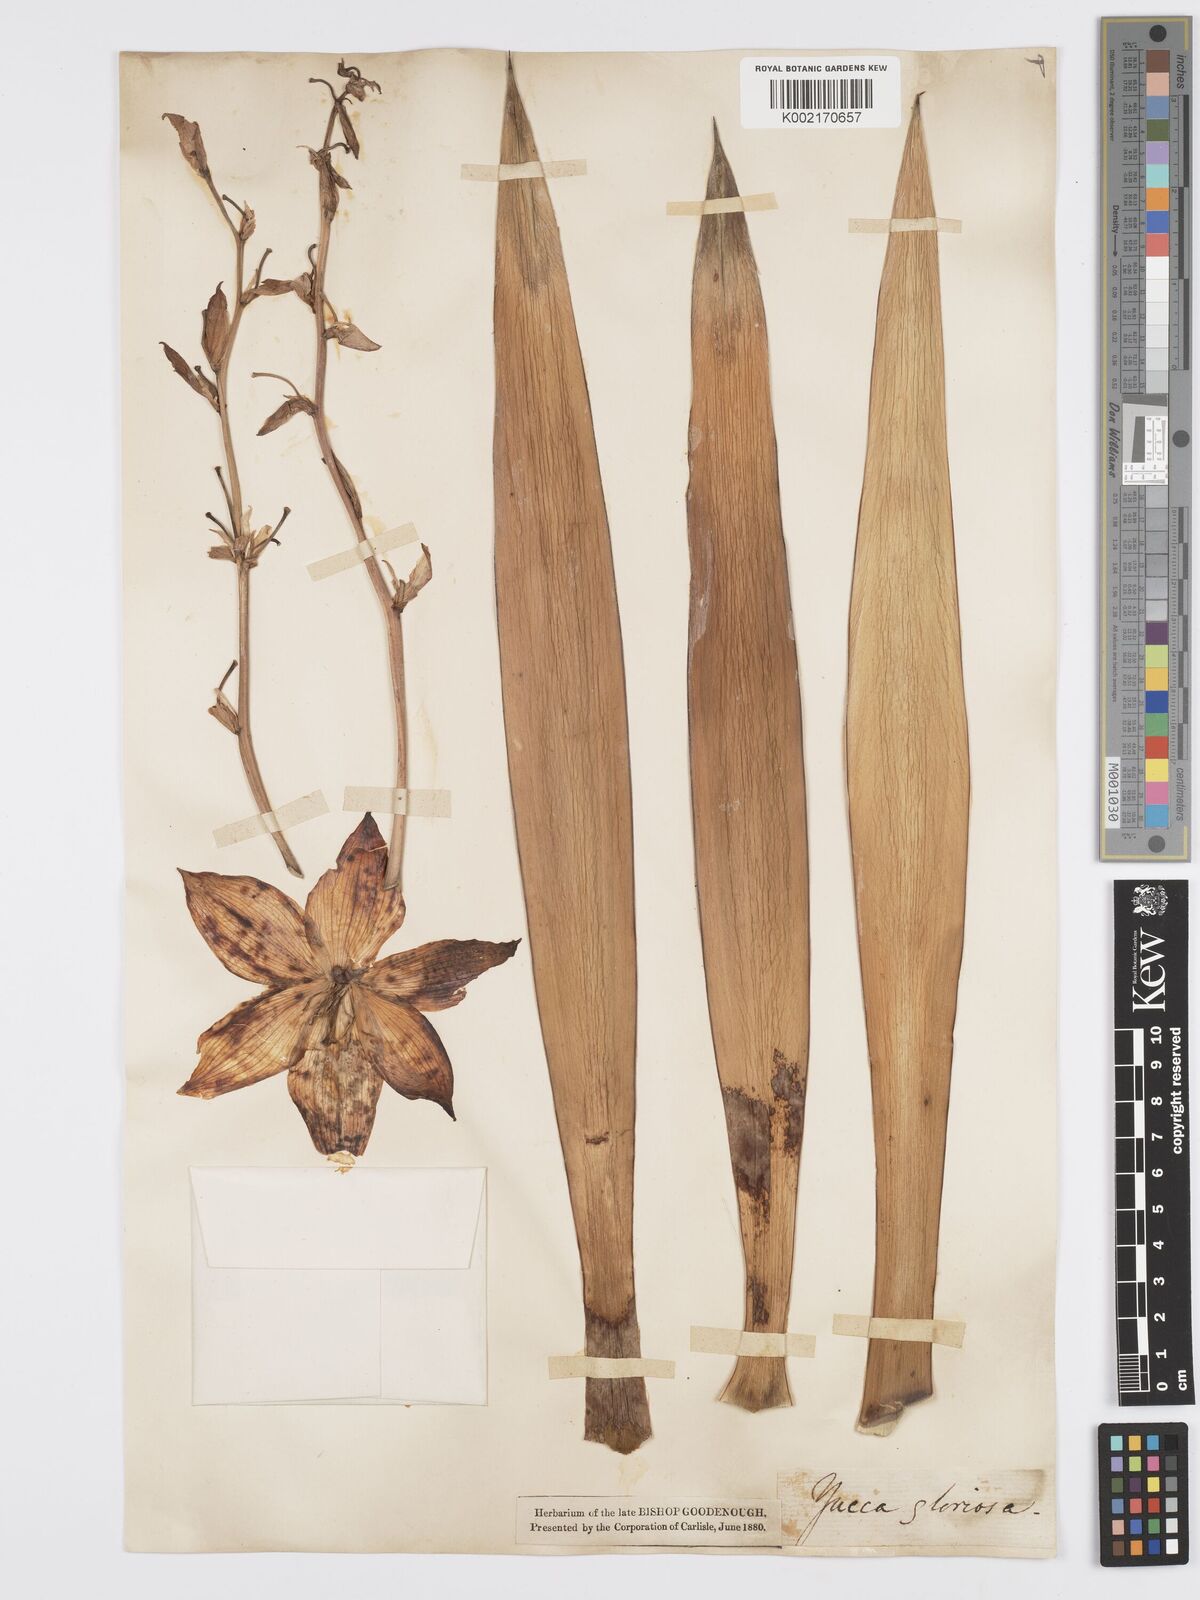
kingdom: Plantae
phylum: Tracheophyta
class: Liliopsida
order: Asparagales
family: Asparagaceae
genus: Yucca
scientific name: Yucca gloriosa
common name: Spanish-dagger
